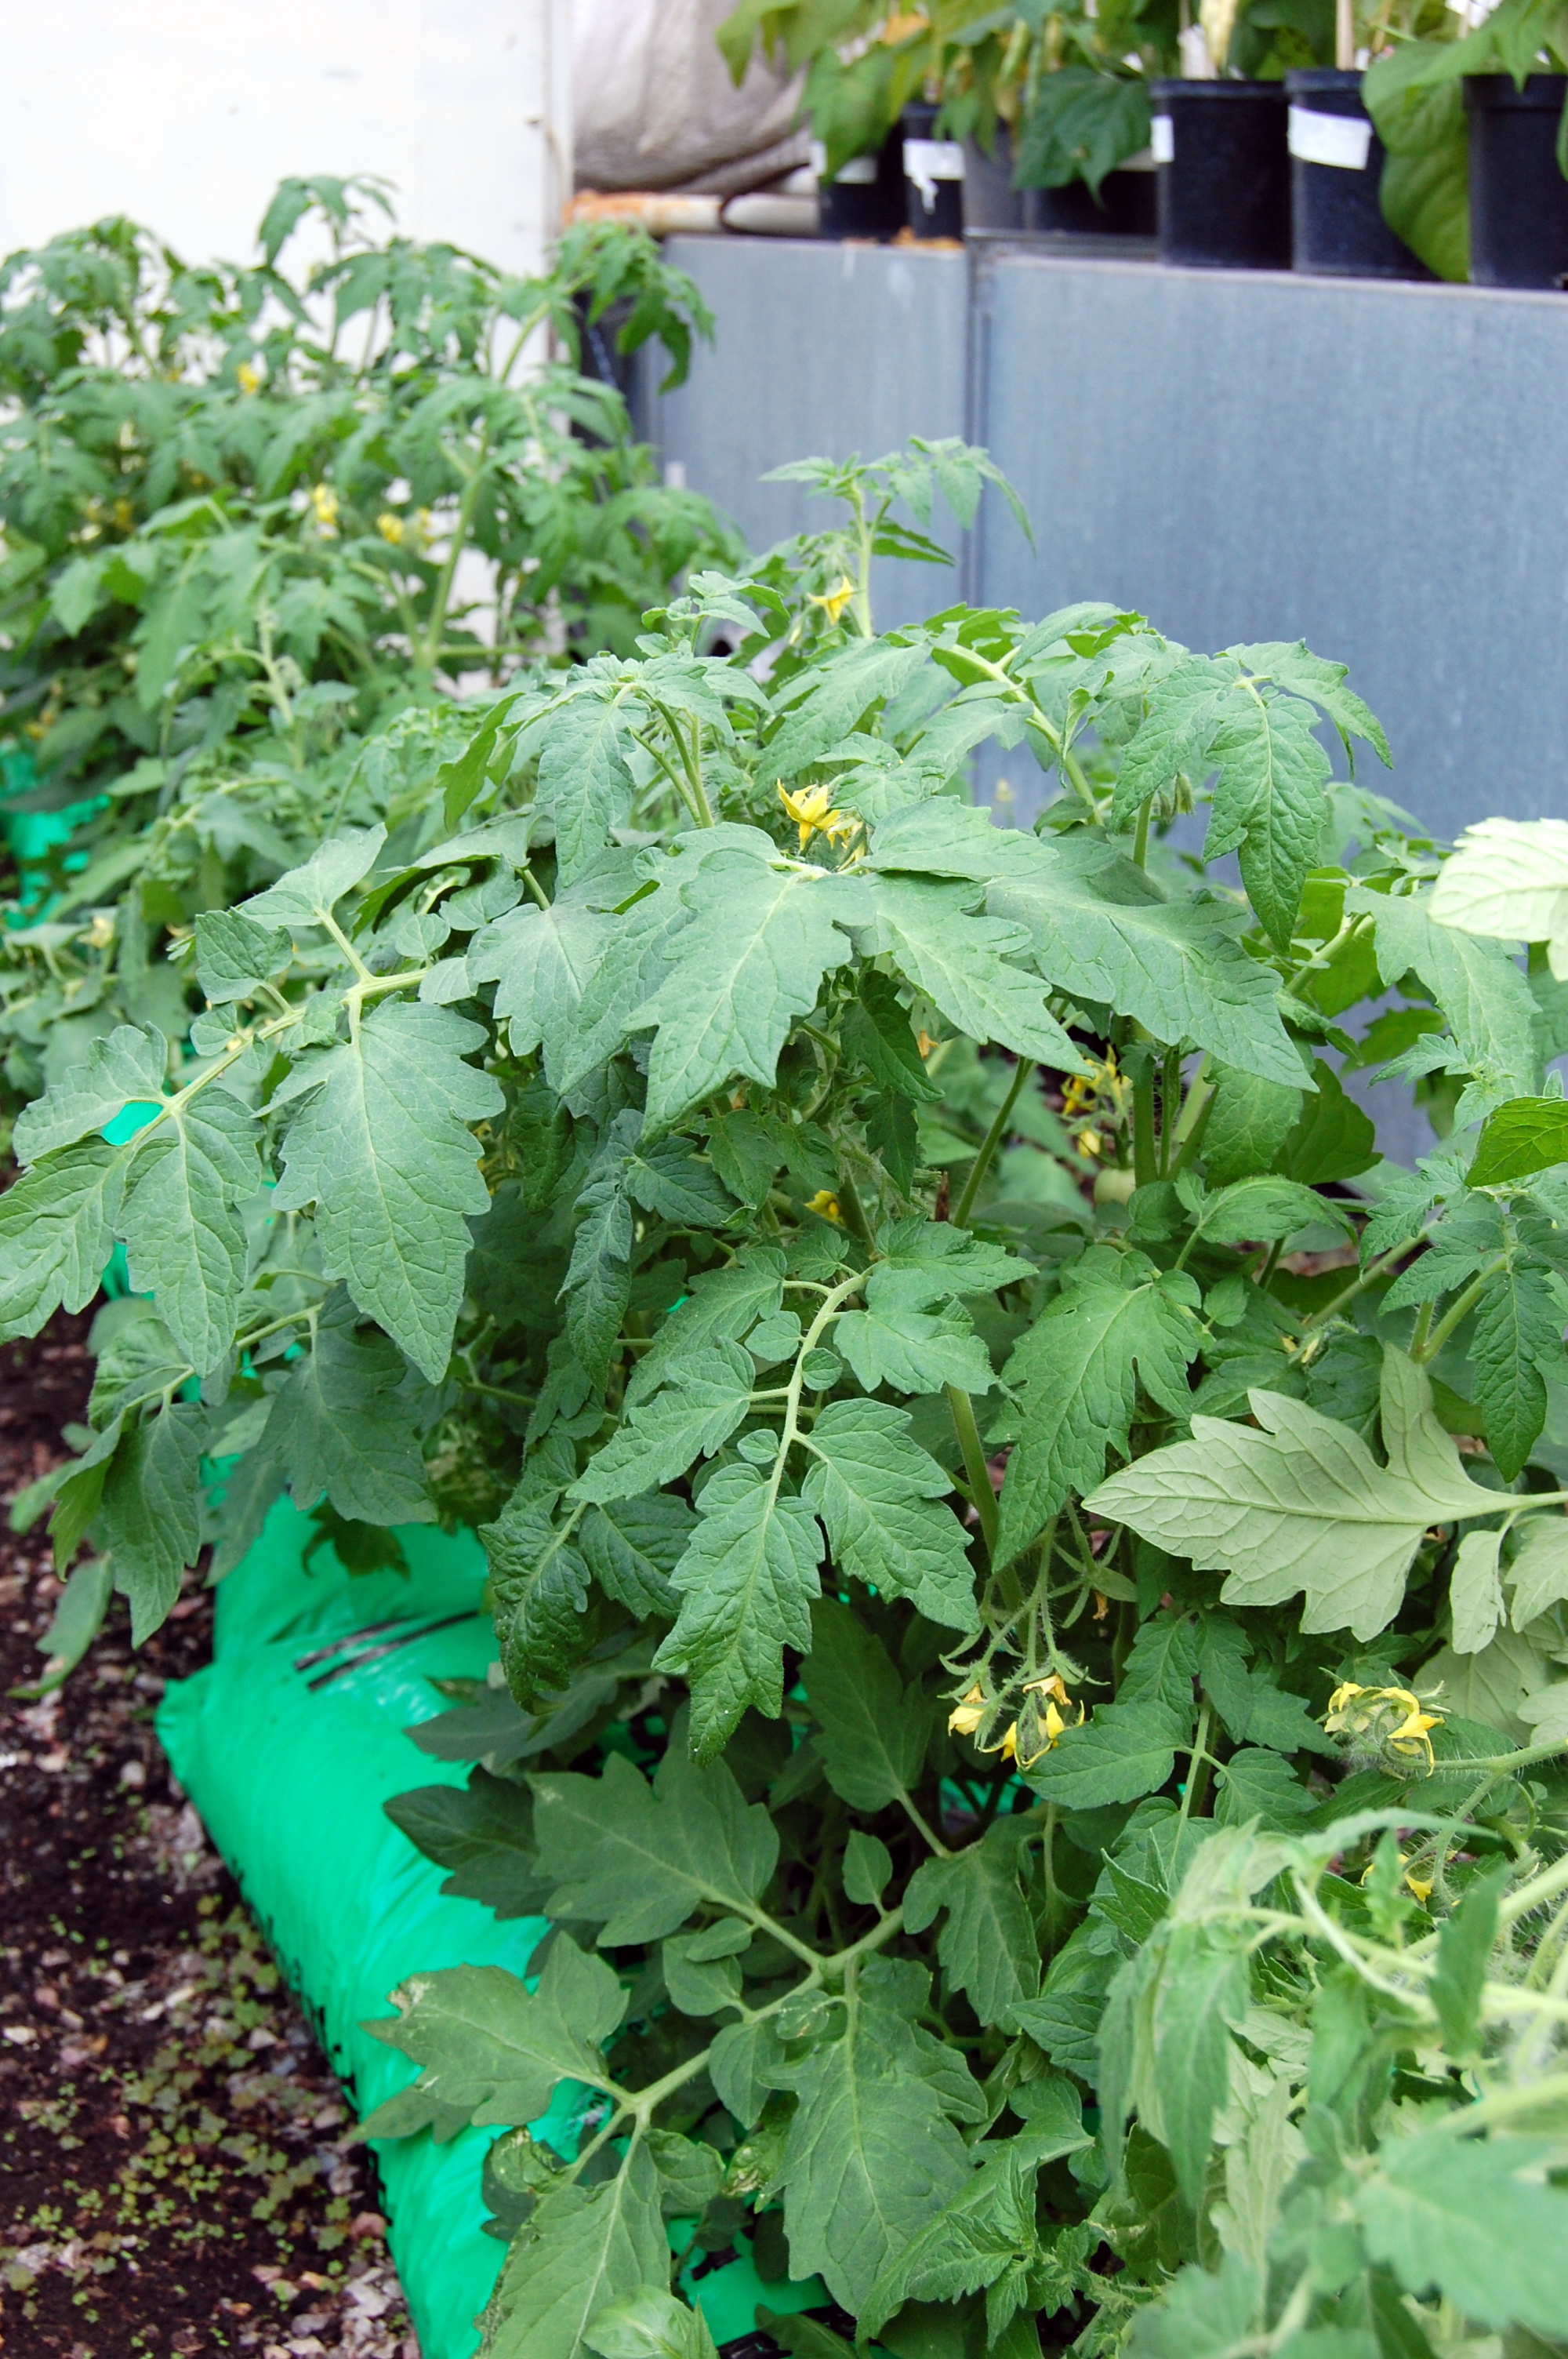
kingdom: Plantae
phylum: Tracheophyta
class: Magnoliopsida
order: Solanales
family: Solanaceae
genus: Solanum
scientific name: Solanum lycopersicum
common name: Garden tomato
